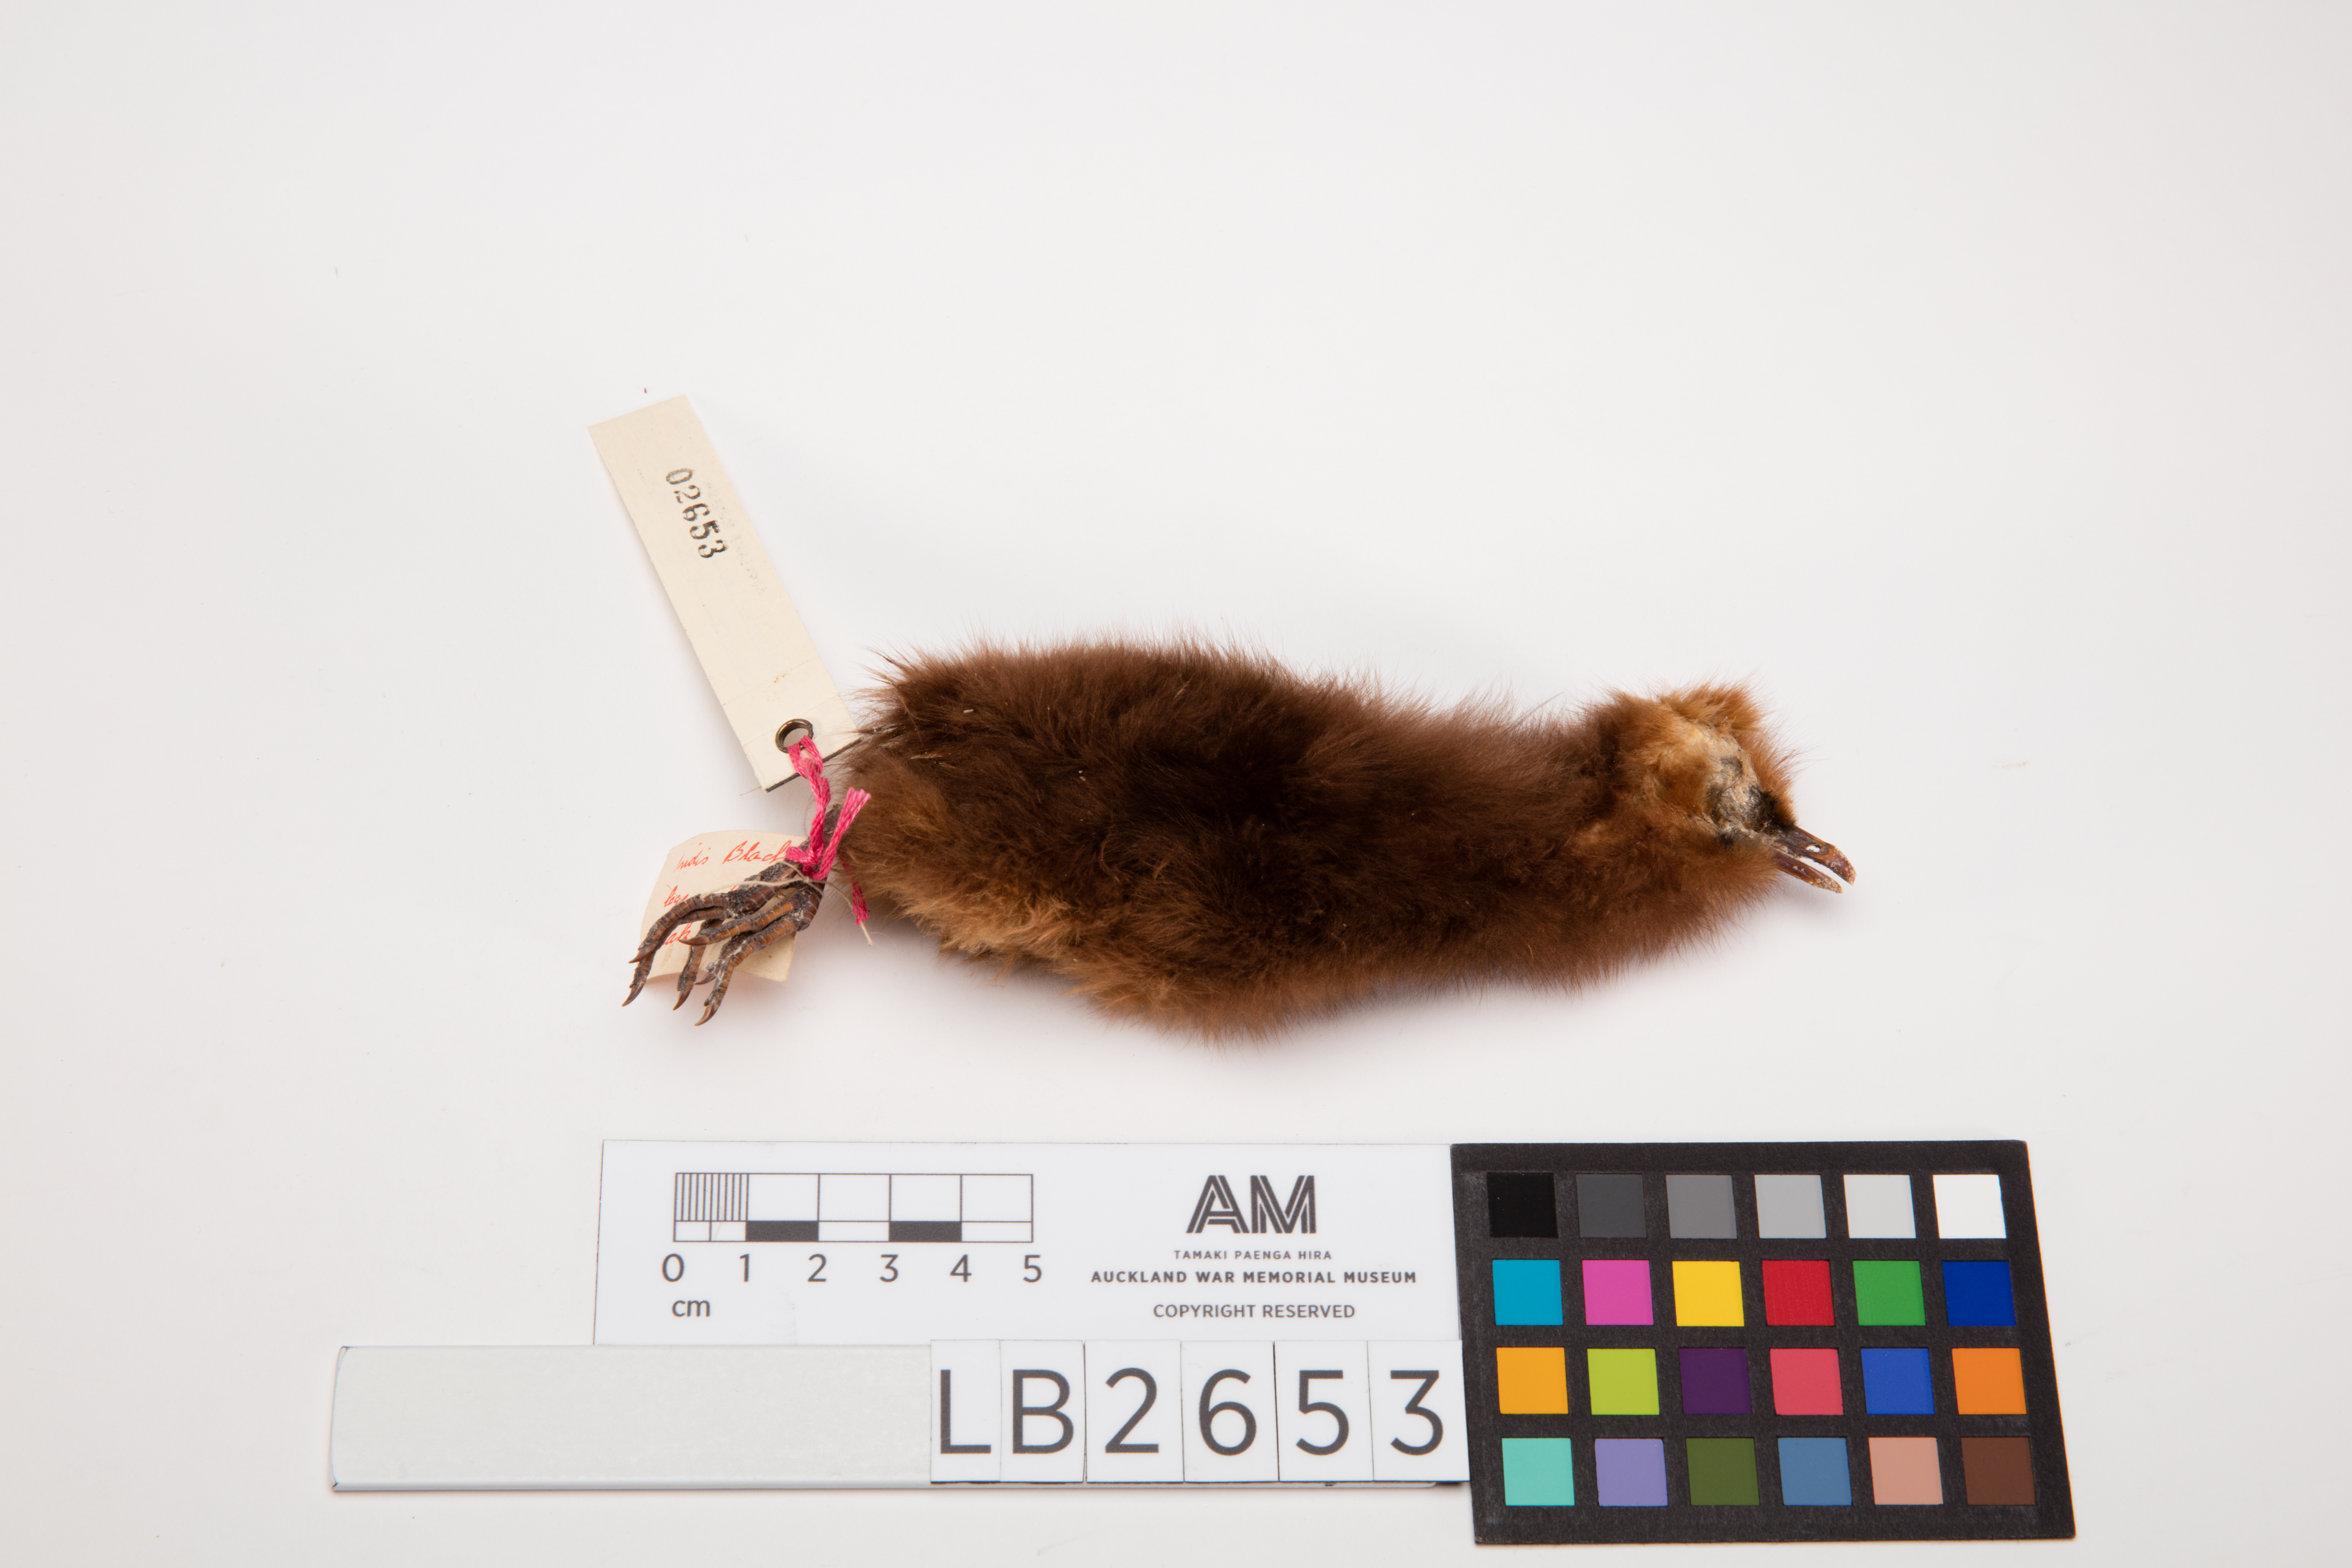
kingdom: Animalia
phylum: Chordata
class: Aves
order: Gruiformes
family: Rallidae
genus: Gallirallus
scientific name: Gallirallus australis
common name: Weka
